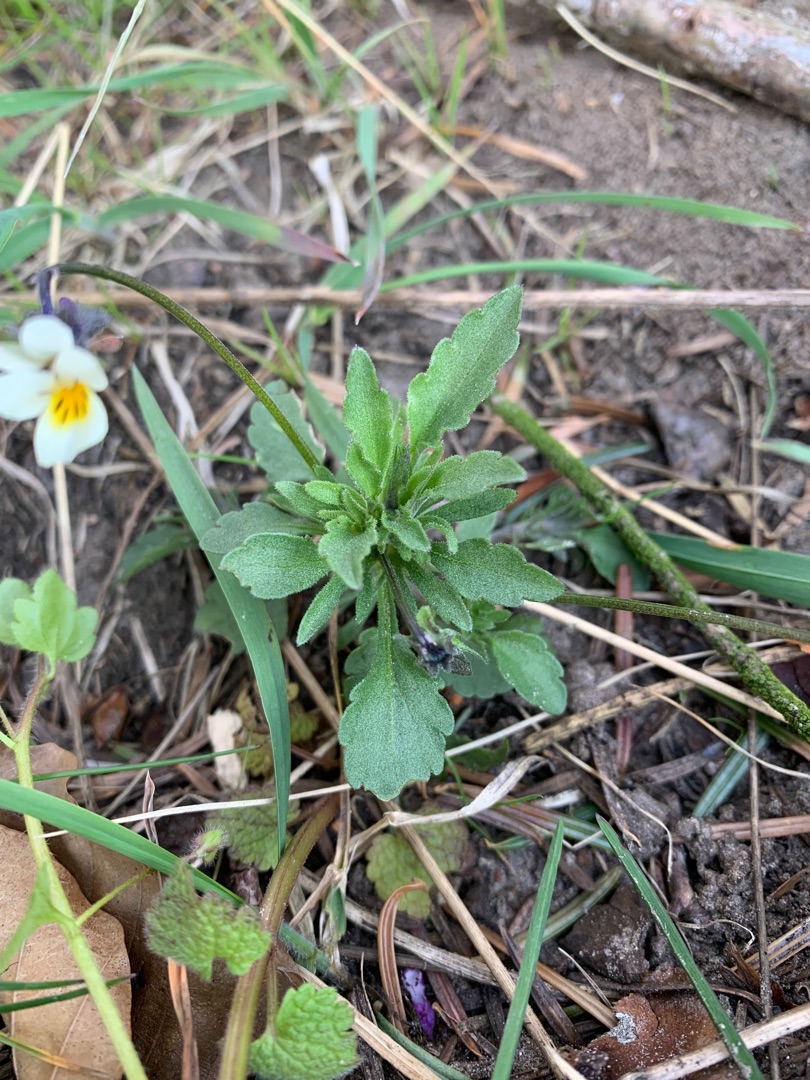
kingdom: Plantae
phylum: Tracheophyta
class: Magnoliopsida
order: Malpighiales
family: Violaceae
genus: Viola
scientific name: Viola arvensis
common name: Ager-stedmoderblomst
